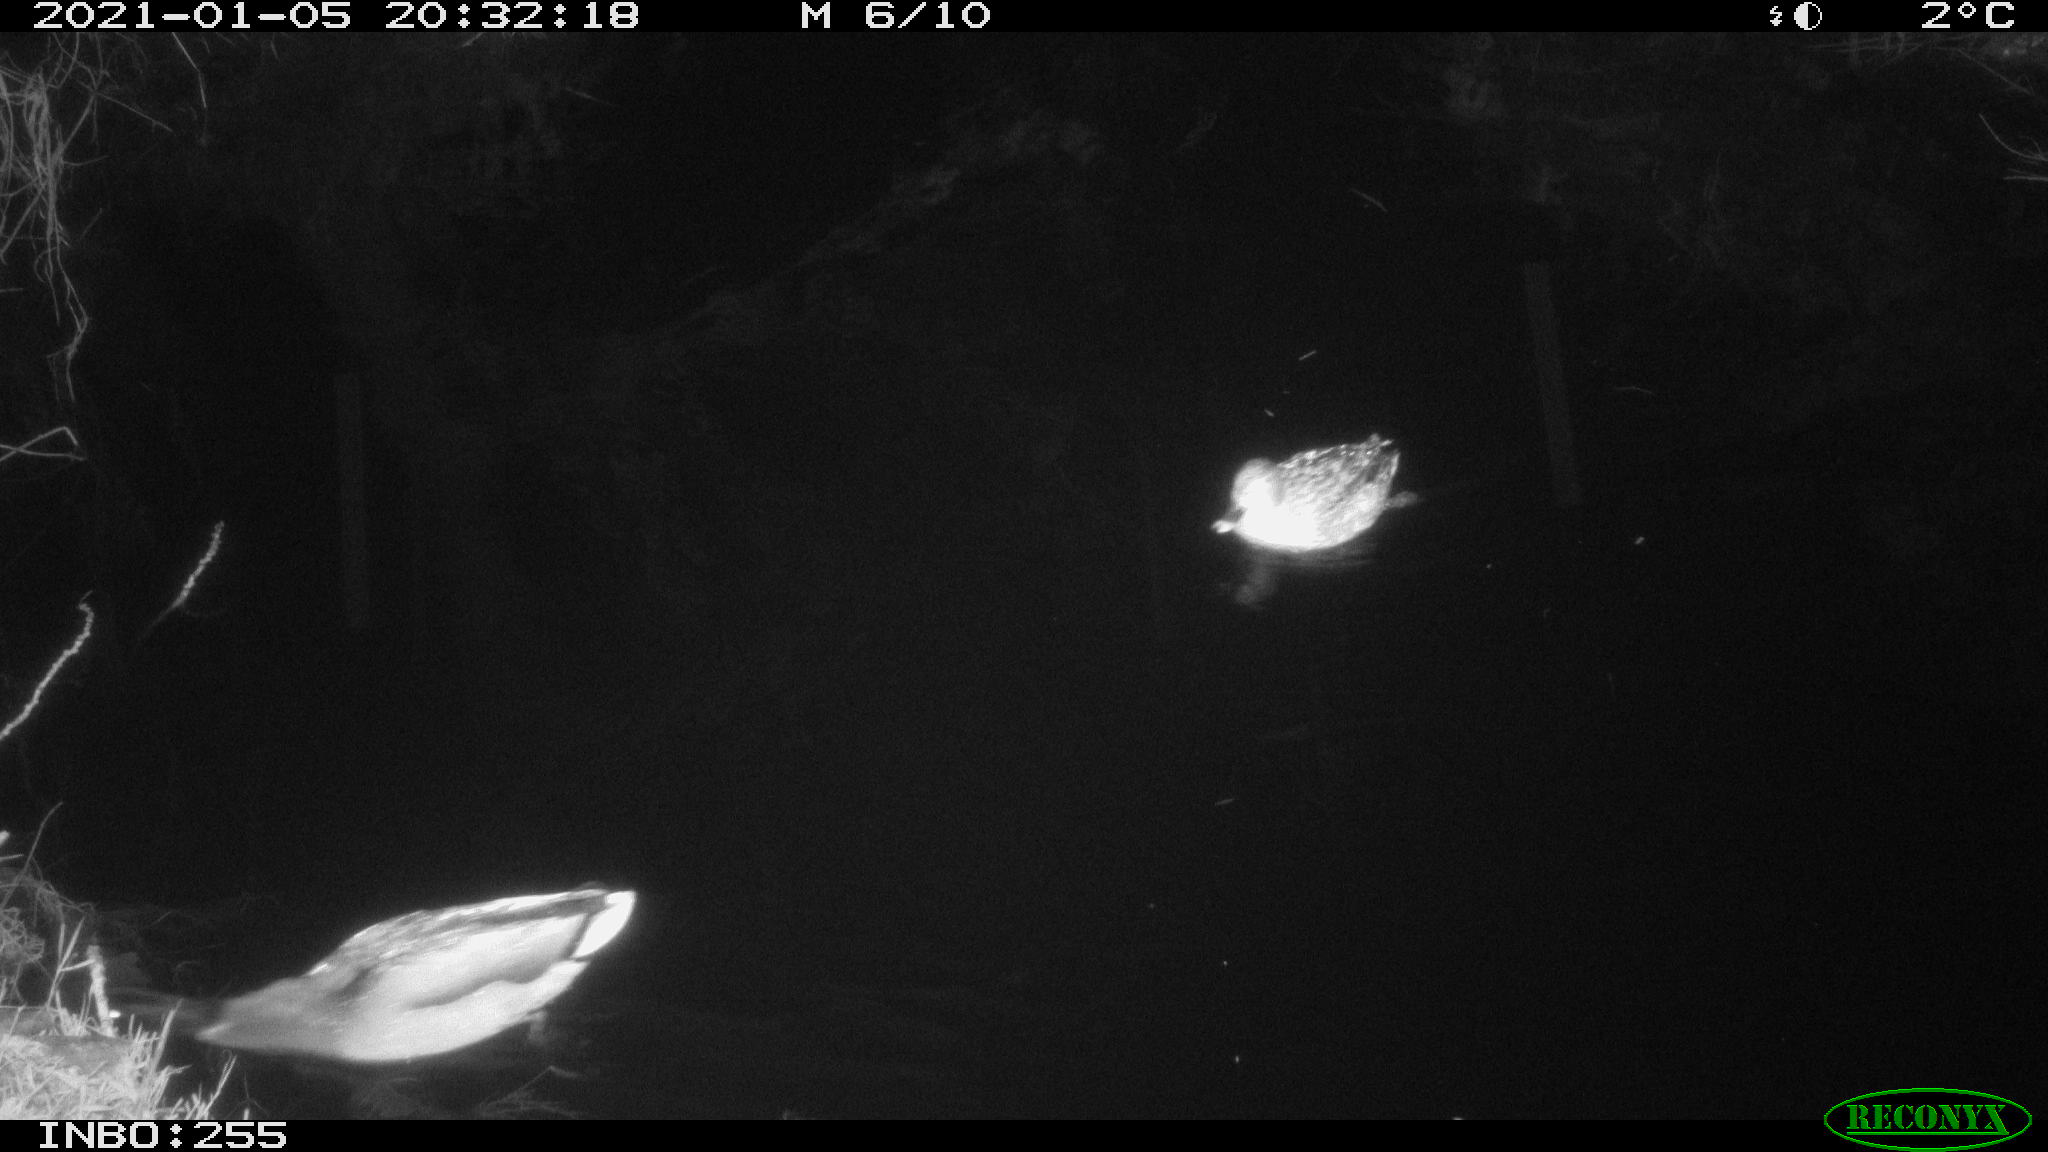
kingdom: Animalia
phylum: Chordata
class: Aves
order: Anseriformes
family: Anatidae
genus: Anas
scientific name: Anas platyrhynchos
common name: Mallard
